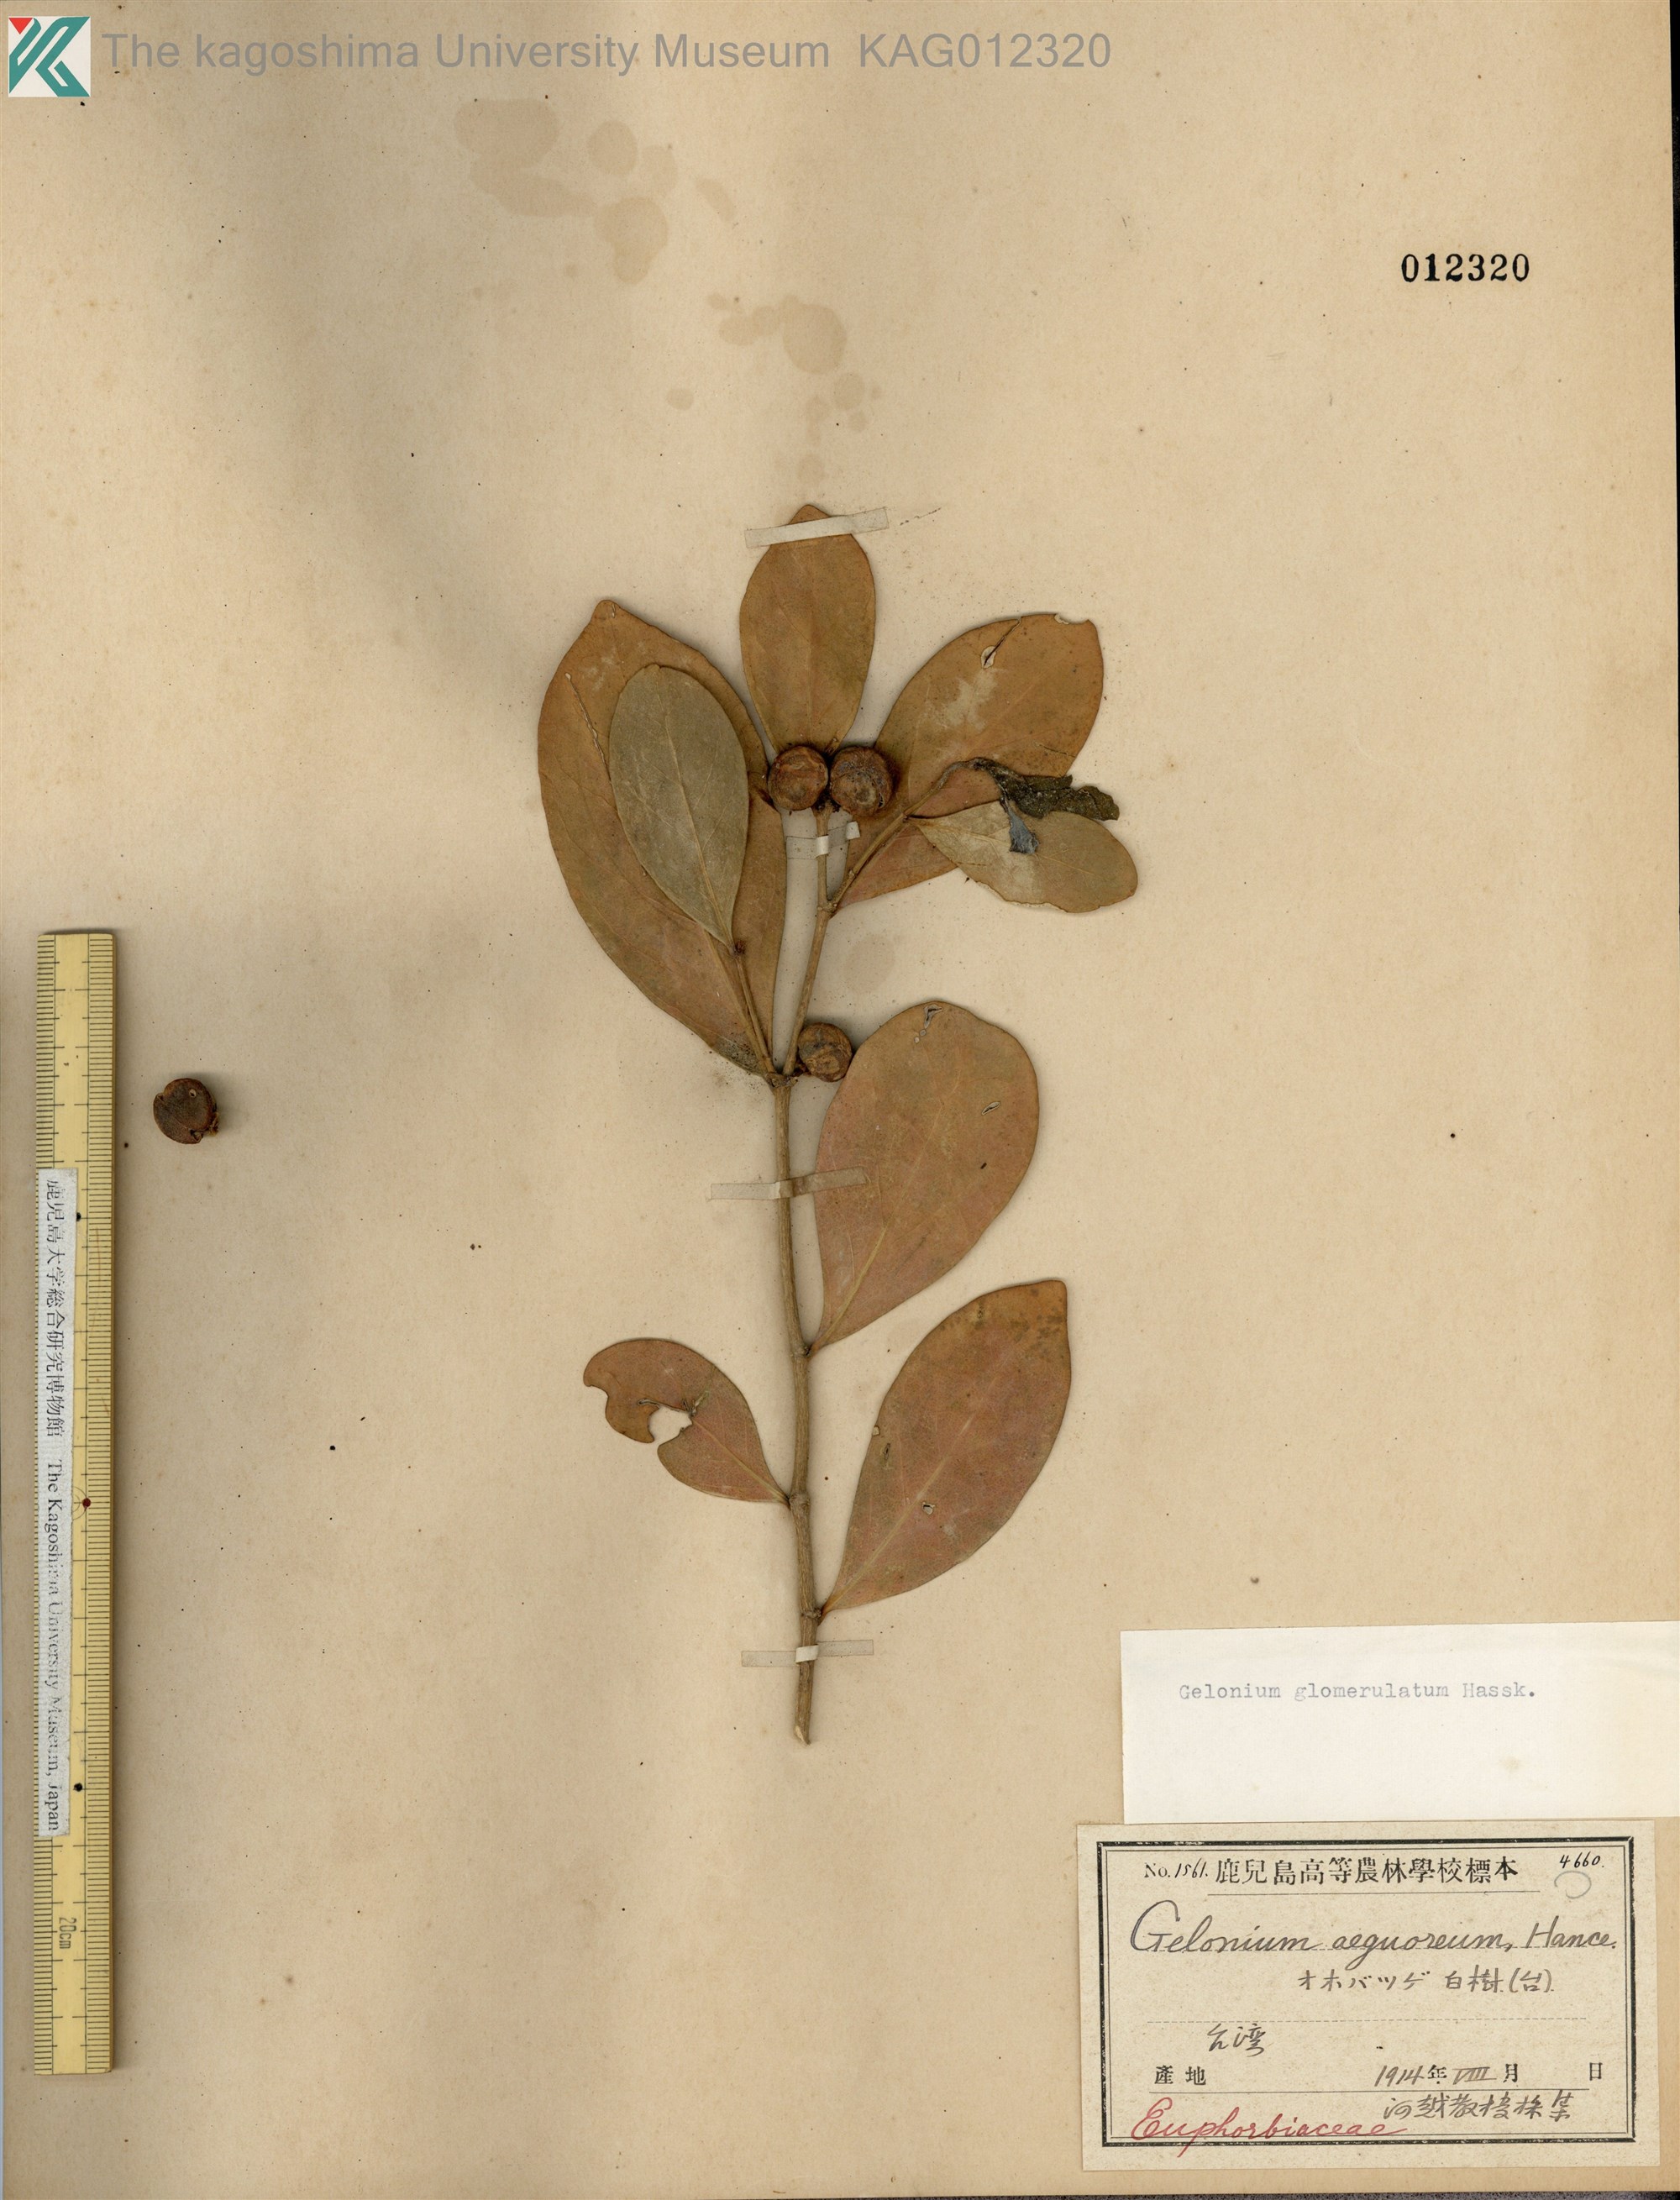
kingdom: Plantae
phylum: Tracheophyta
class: Magnoliopsida
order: Malpighiales
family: Phyllanthaceae
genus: Glochidion
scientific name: Glochidion glomerulatum
